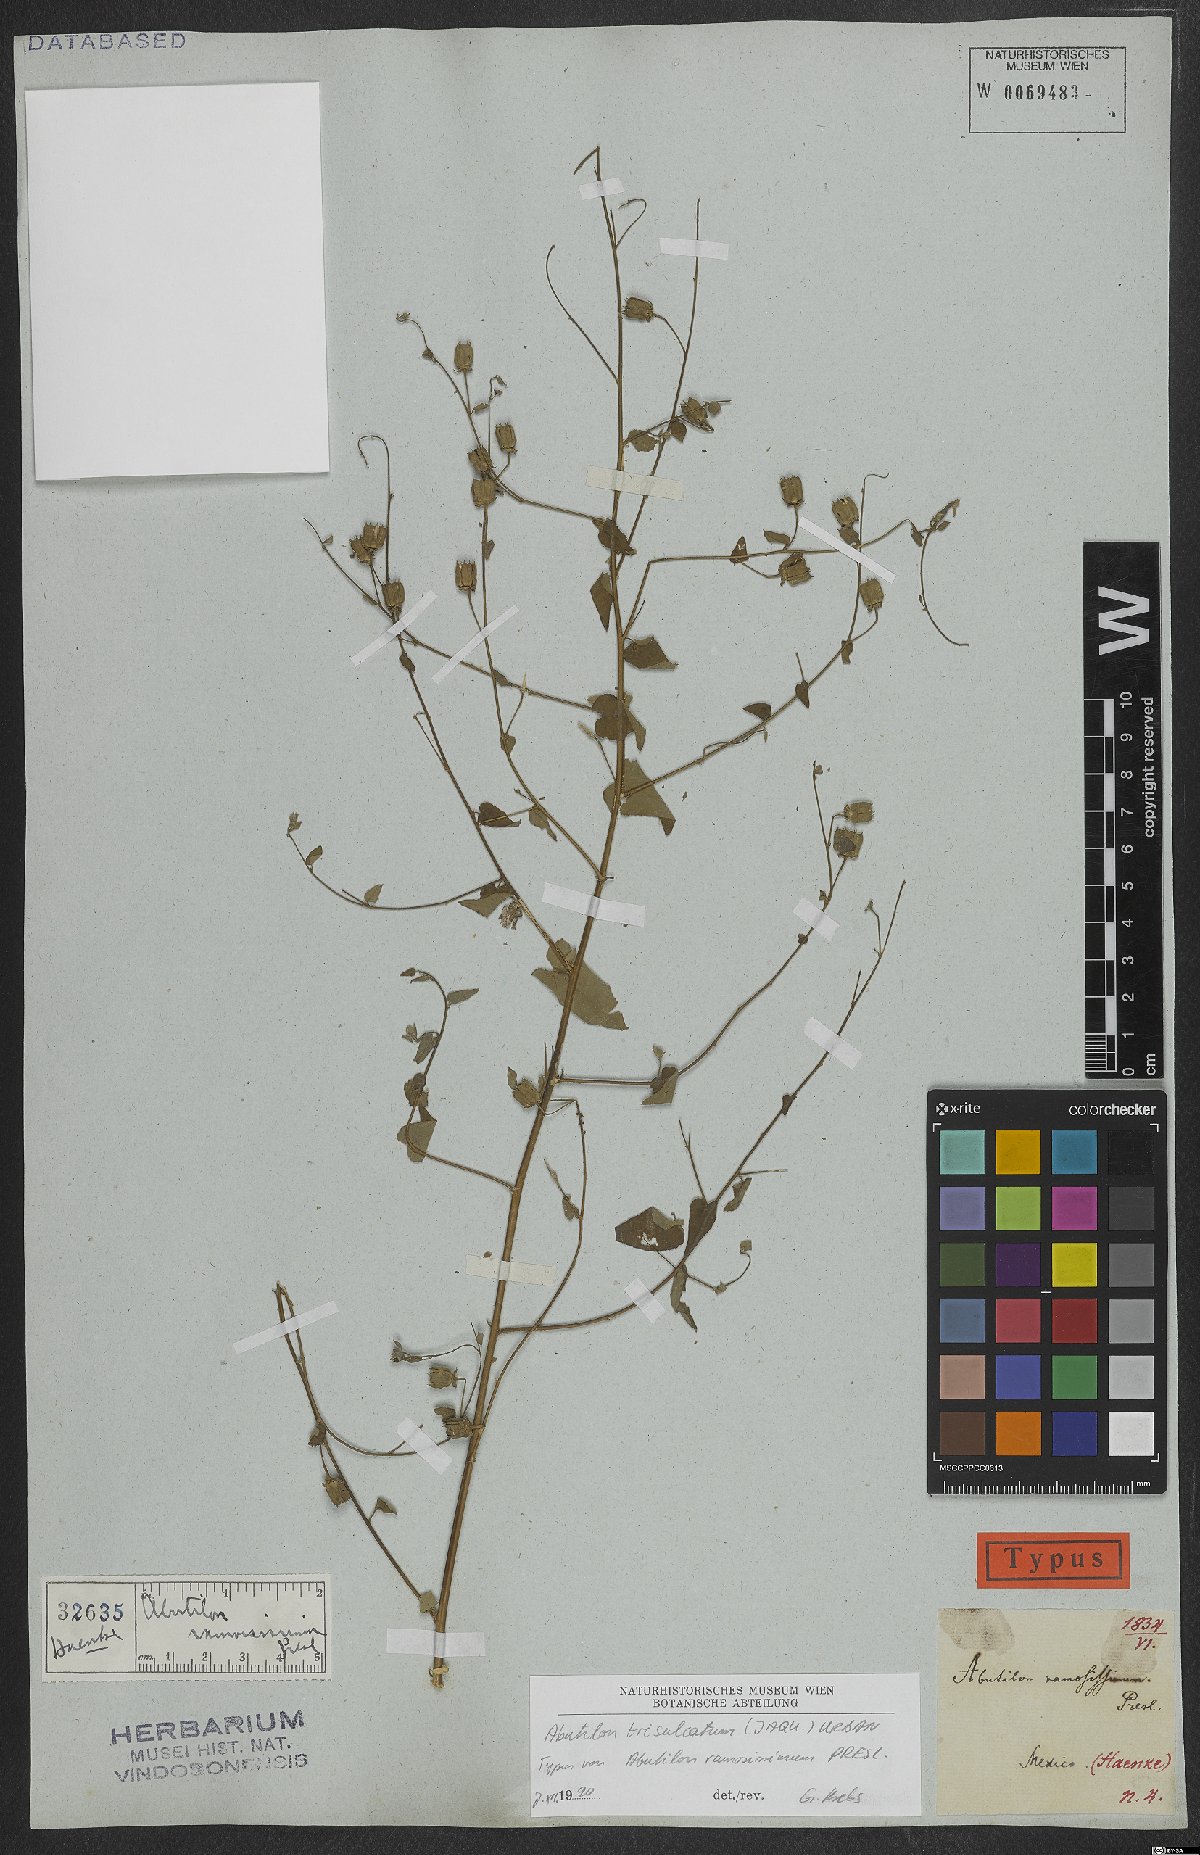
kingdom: Plantae
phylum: Tracheophyta
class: Magnoliopsida
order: Malvales
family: Malvaceae
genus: Abutilon
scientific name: Abutilon trisulcatum
